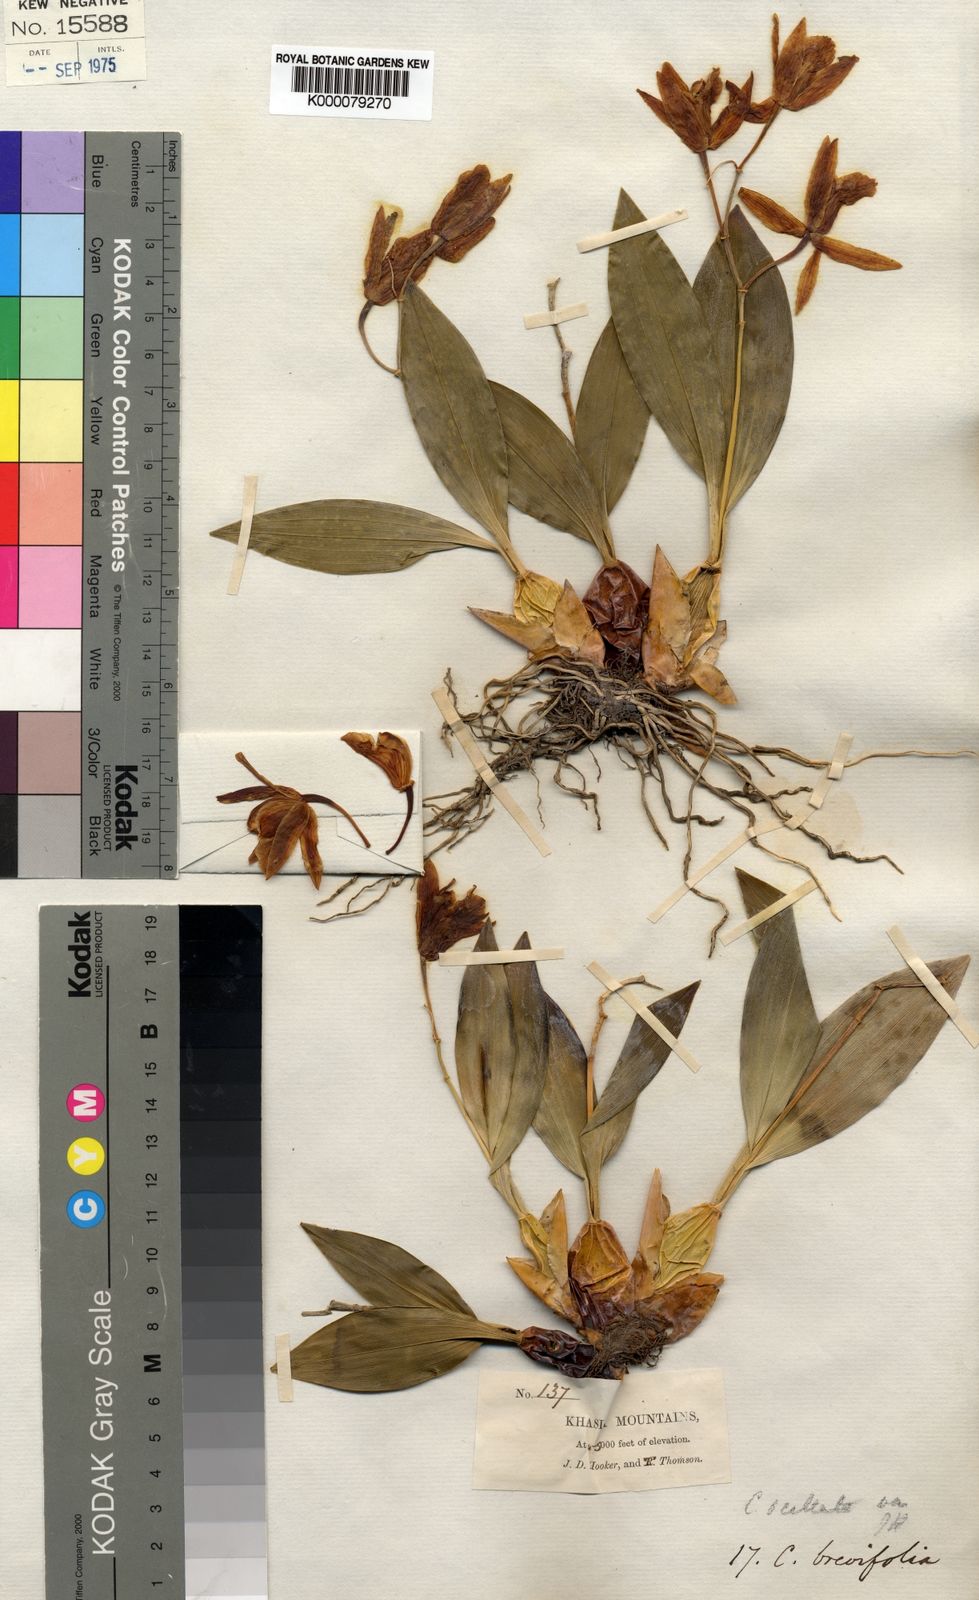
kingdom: Plantae
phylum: Tracheophyta
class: Liliopsida
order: Asparagales
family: Orchidaceae
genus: Coelogyne
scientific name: Coelogyne punctulata
